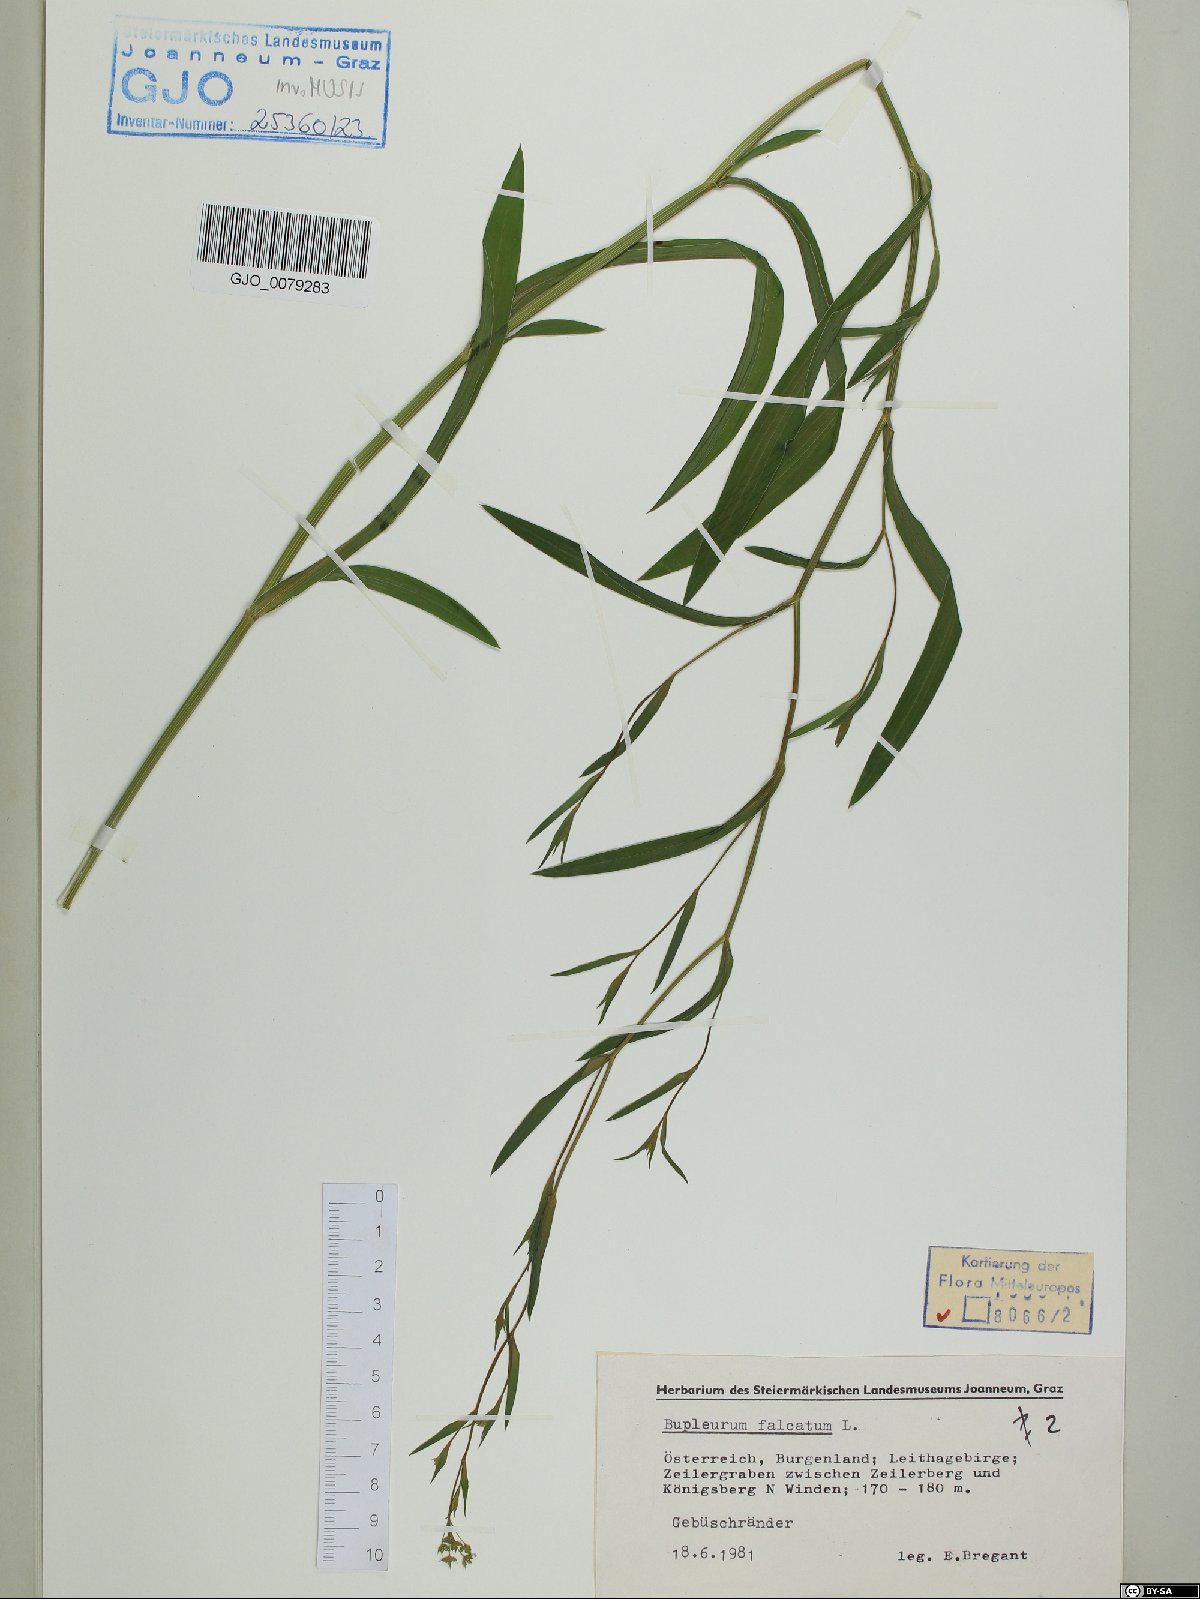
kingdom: Plantae
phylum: Tracheophyta
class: Magnoliopsida
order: Apiales
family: Apiaceae
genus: Bupleurum
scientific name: Bupleurum falcatum
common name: Sickle-leaved hare's-ear
